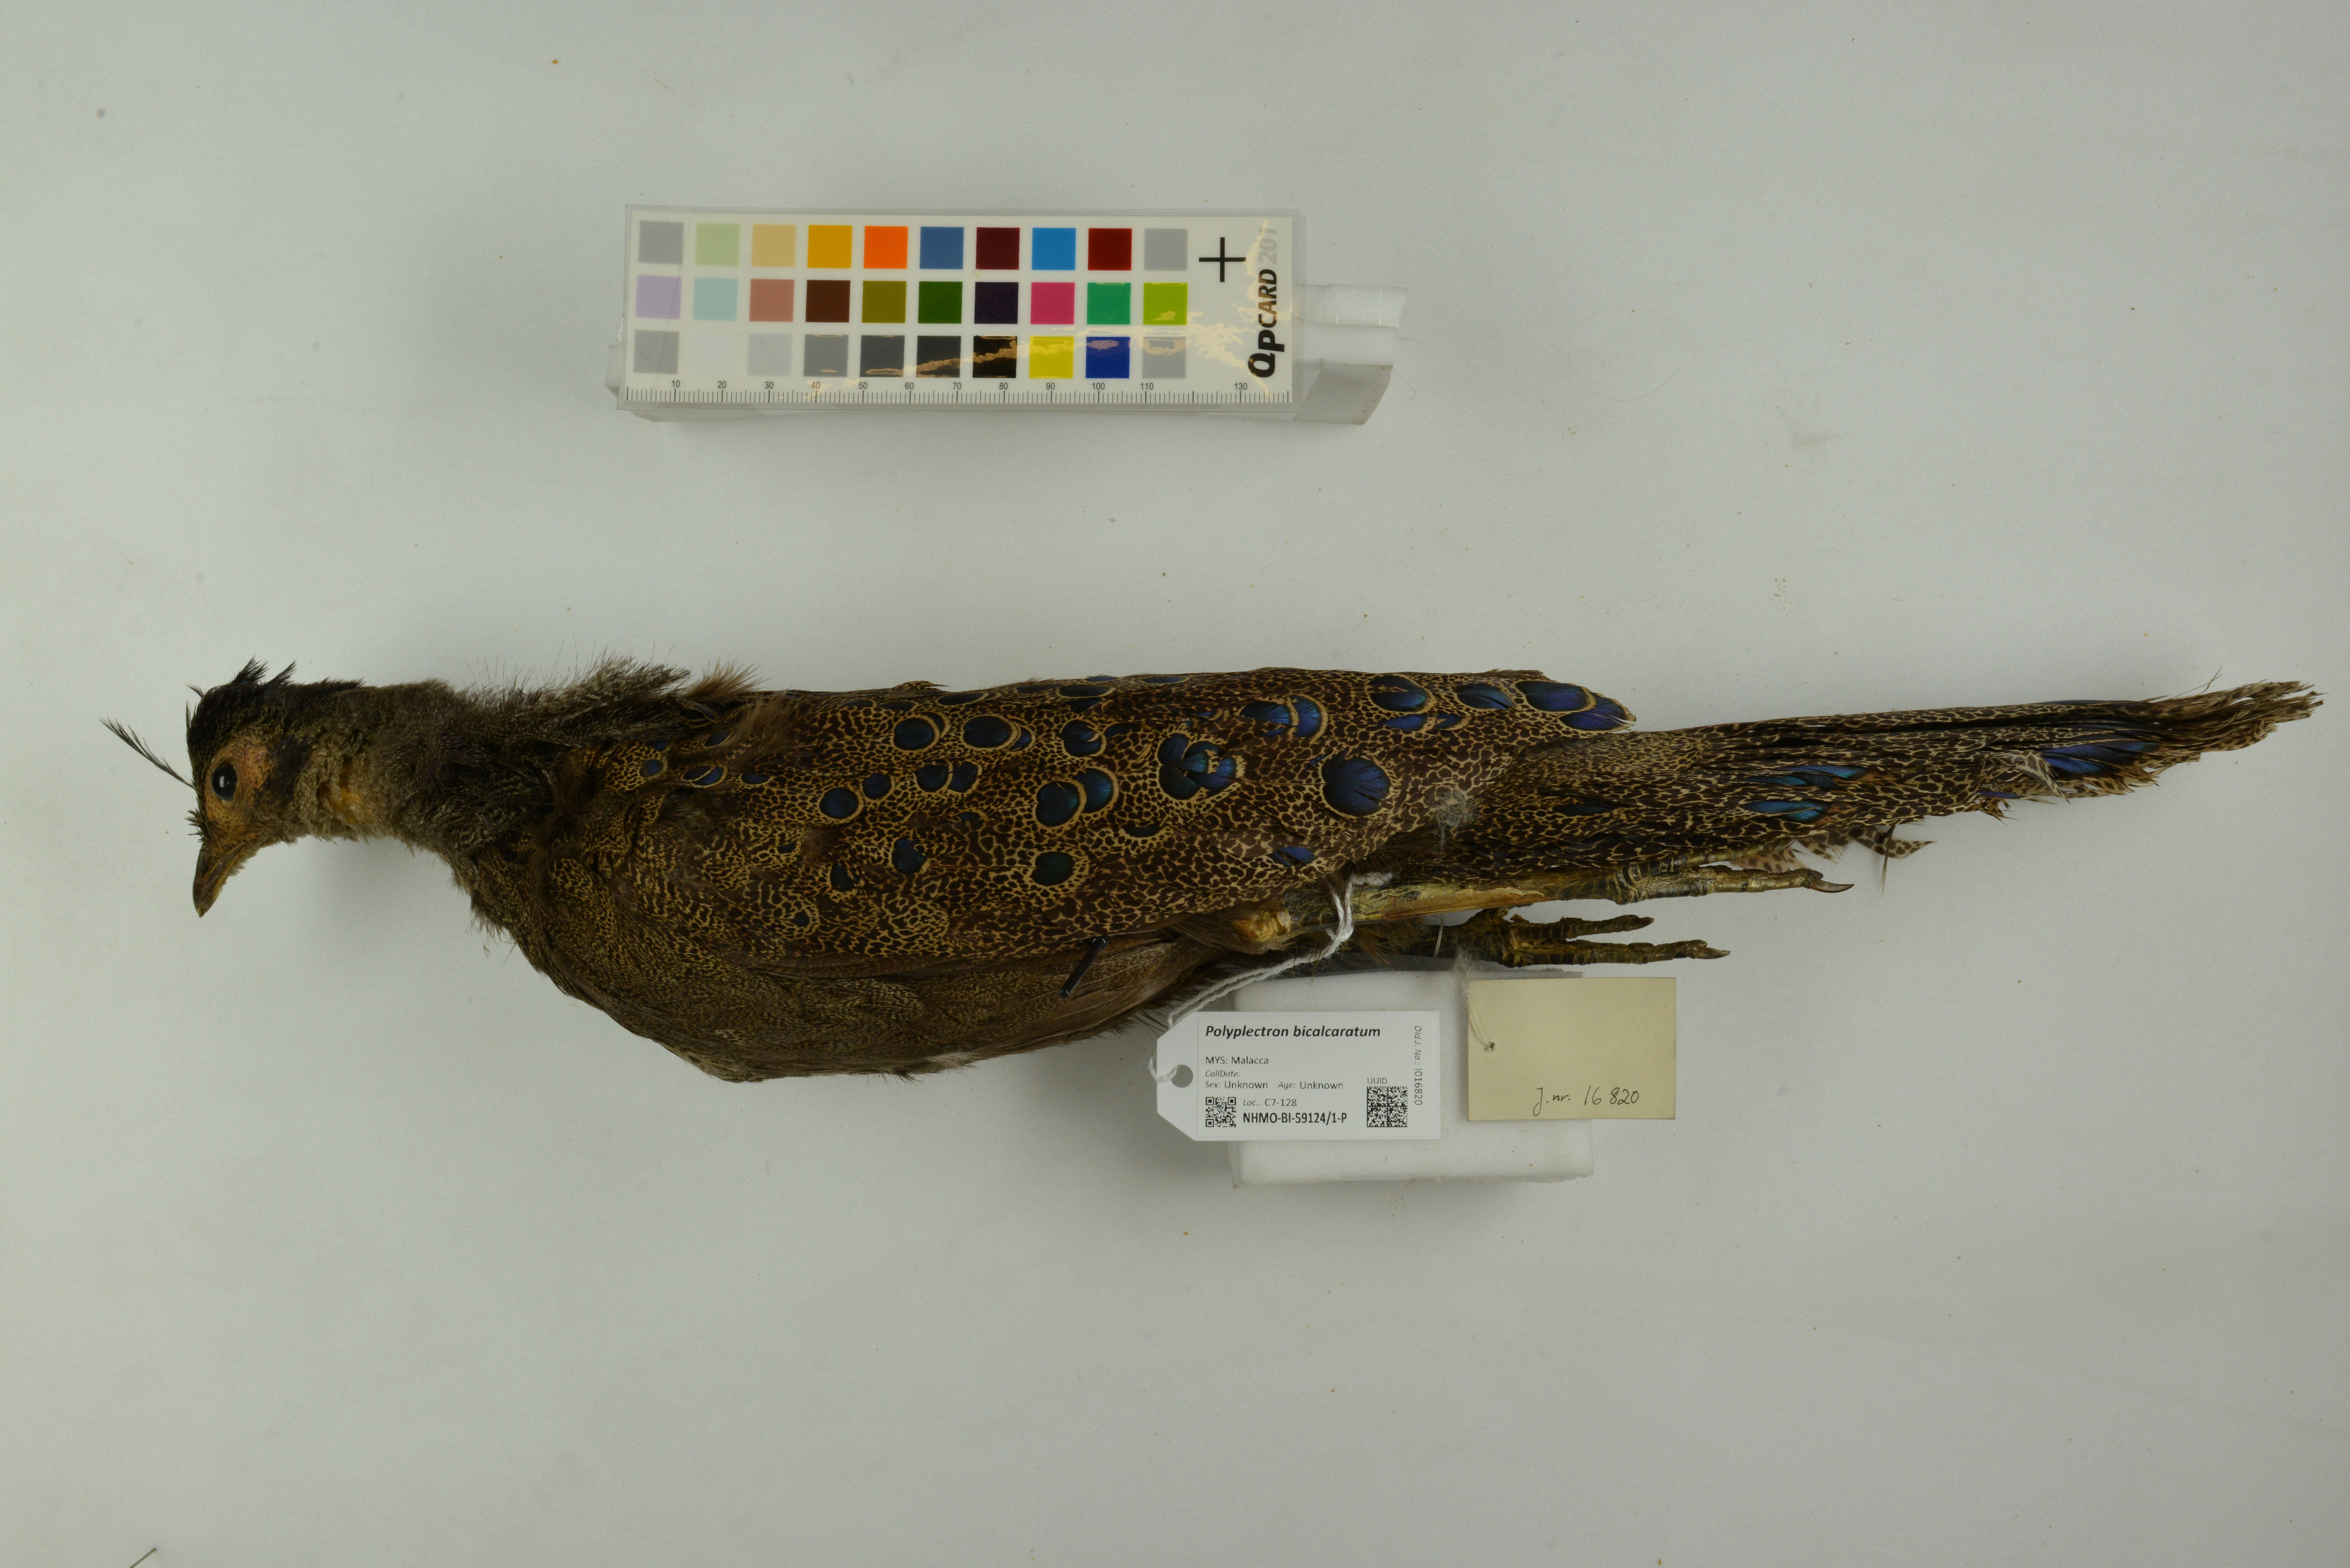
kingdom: Animalia
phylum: Chordata
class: Aves
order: Galliformes
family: Phasianidae
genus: Polyplectron
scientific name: Polyplectron bicalcaratum
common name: Grey peacock-pheasant
